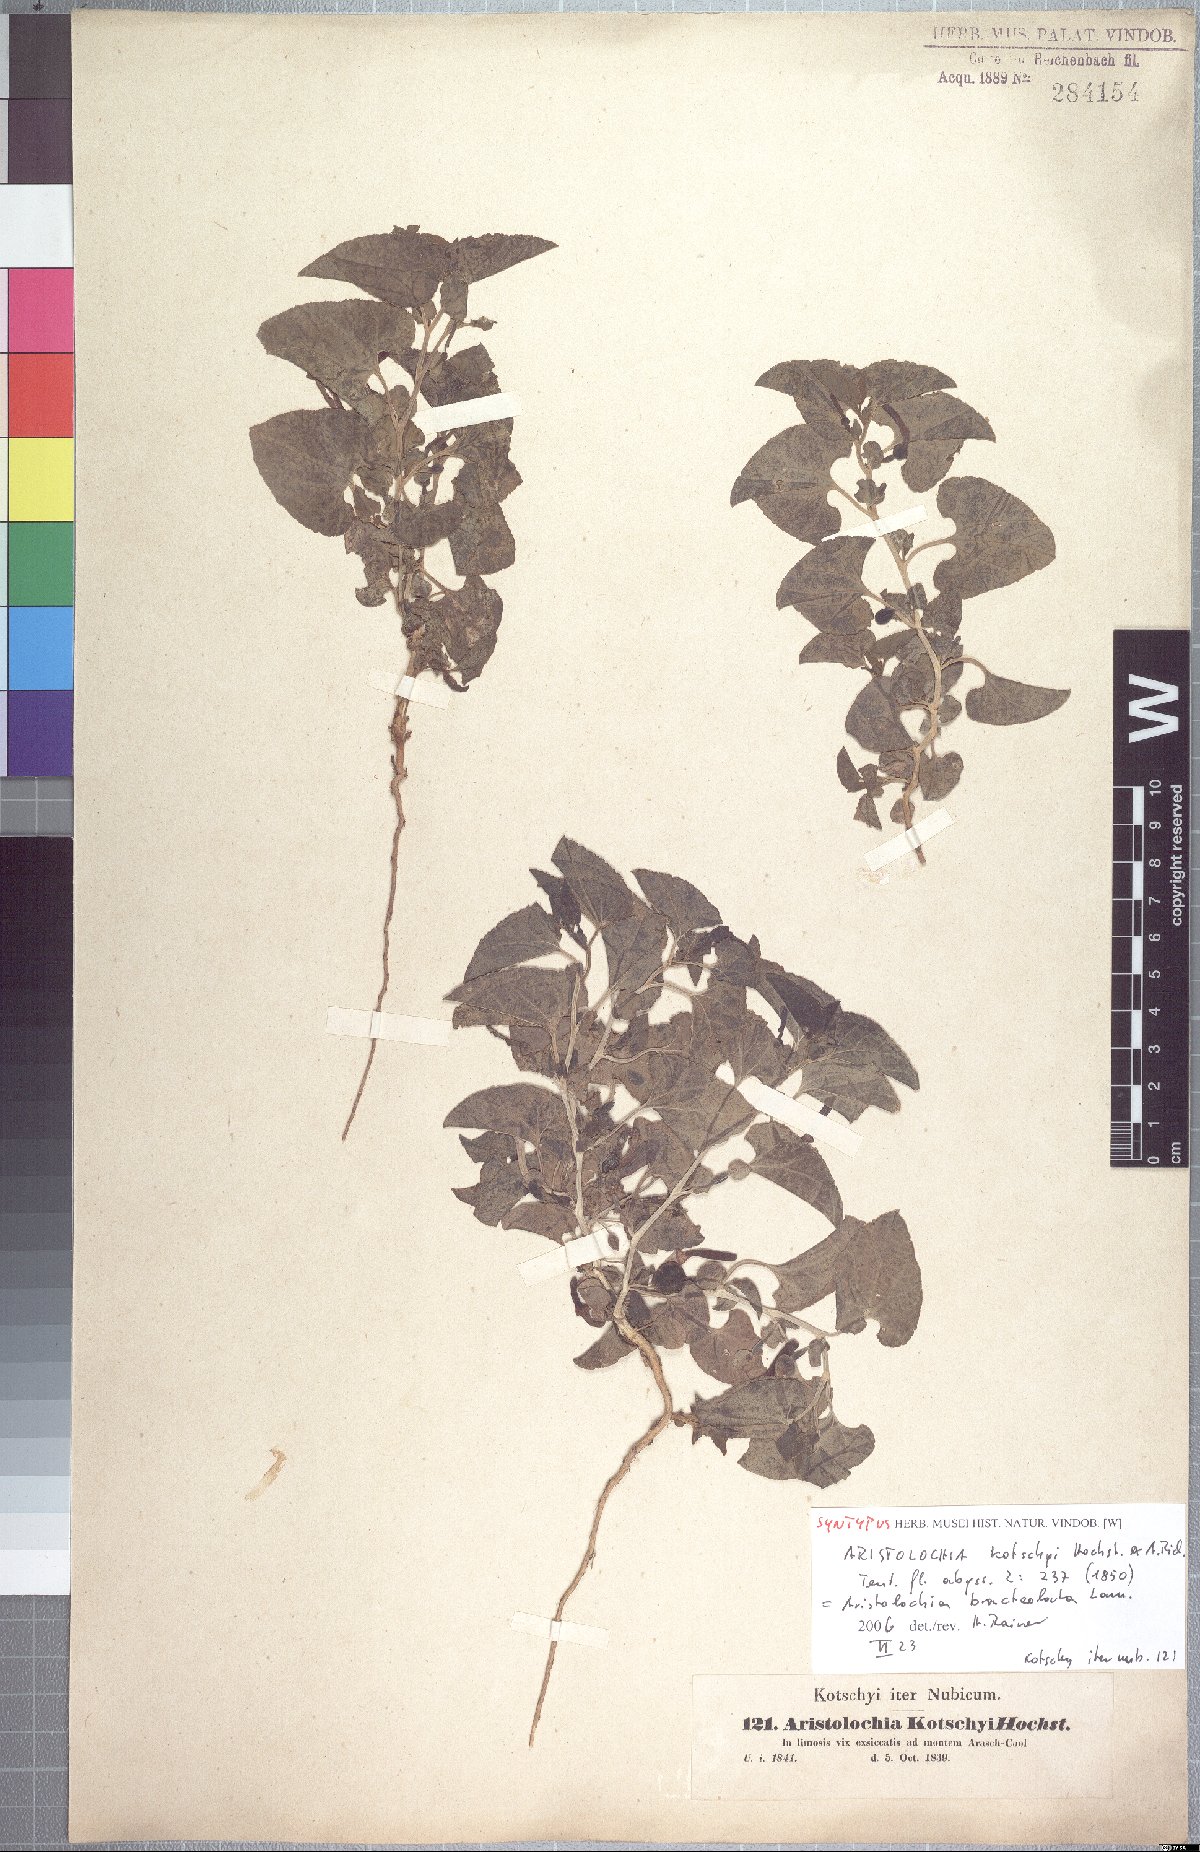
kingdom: Plantae
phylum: Tracheophyta
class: Magnoliopsida
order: Piperales
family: Aristolochiaceae
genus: Aristolochia
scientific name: Aristolochia bracteolata
